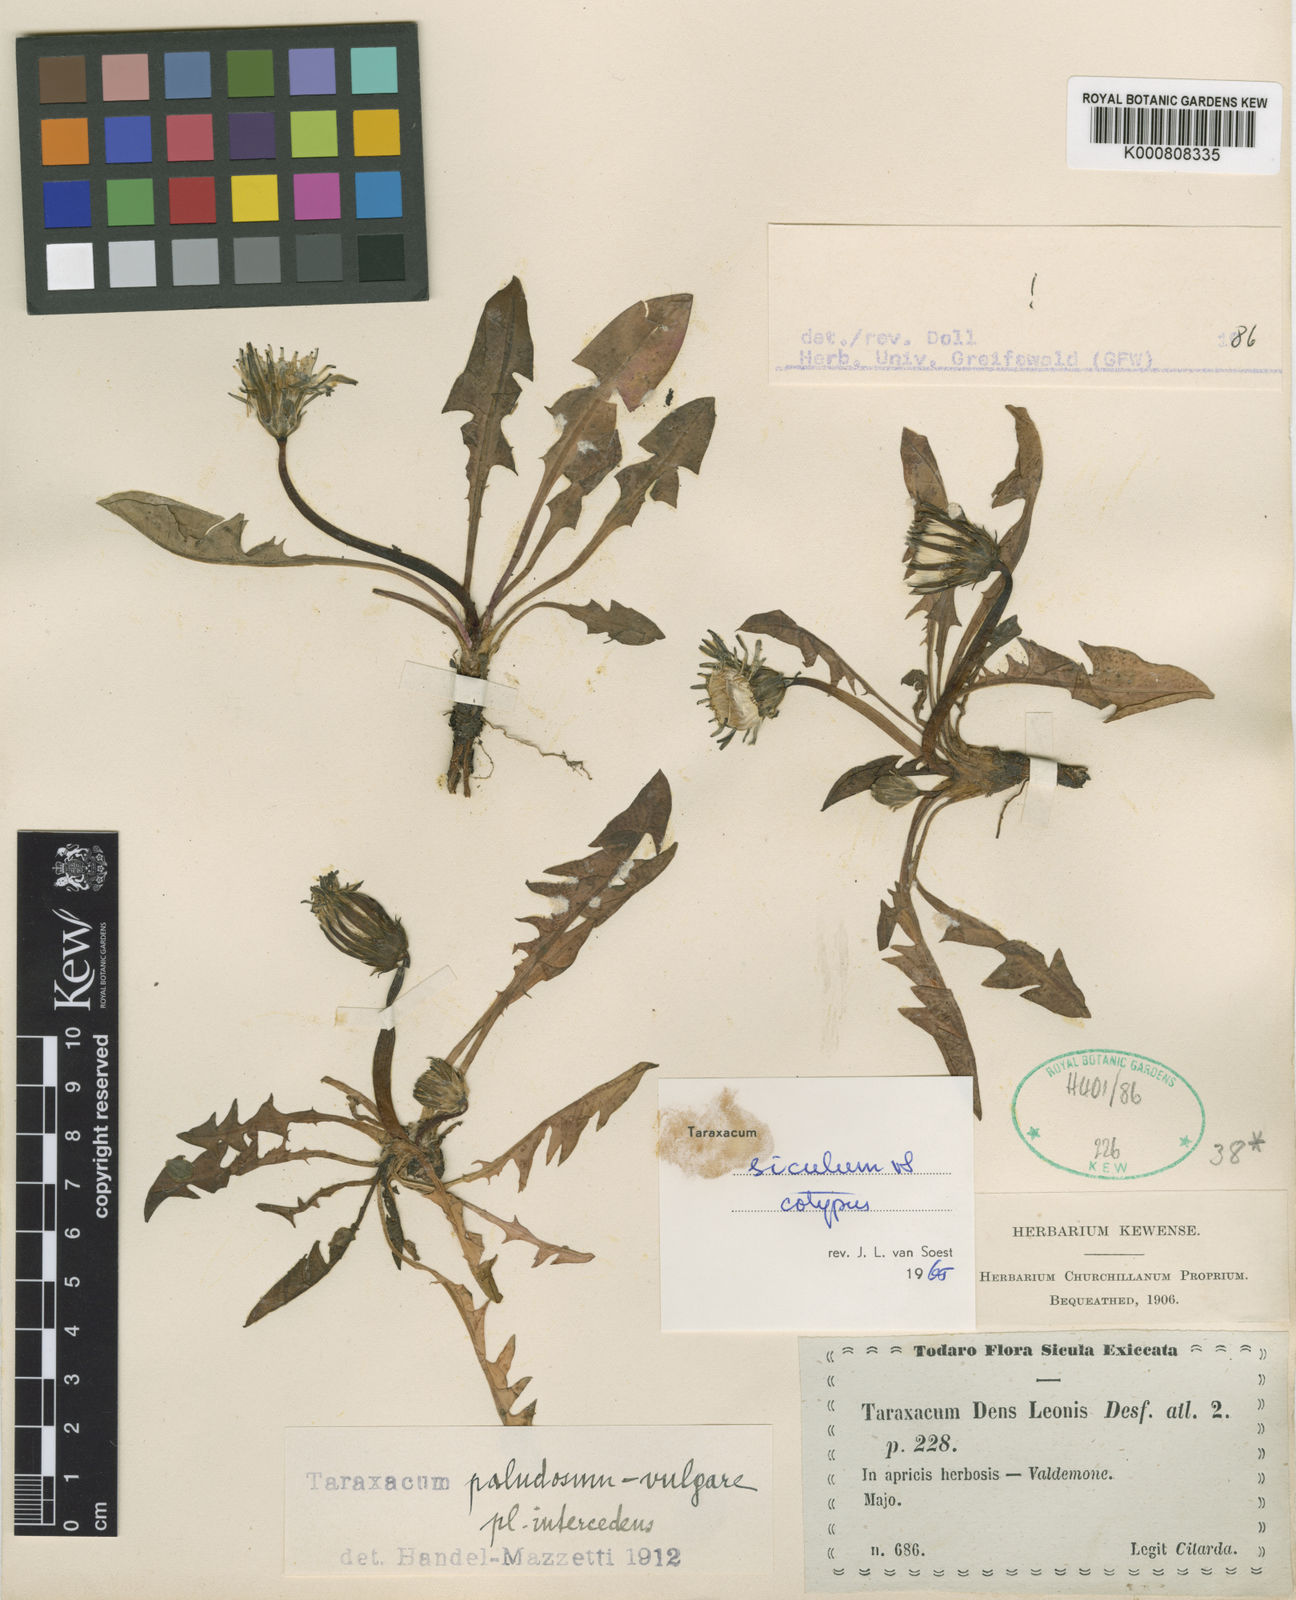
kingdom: Plantae
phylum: Tracheophyta
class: Magnoliopsida
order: Asterales
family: Asteraceae
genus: Taraxacum
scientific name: Taraxacum siculum
